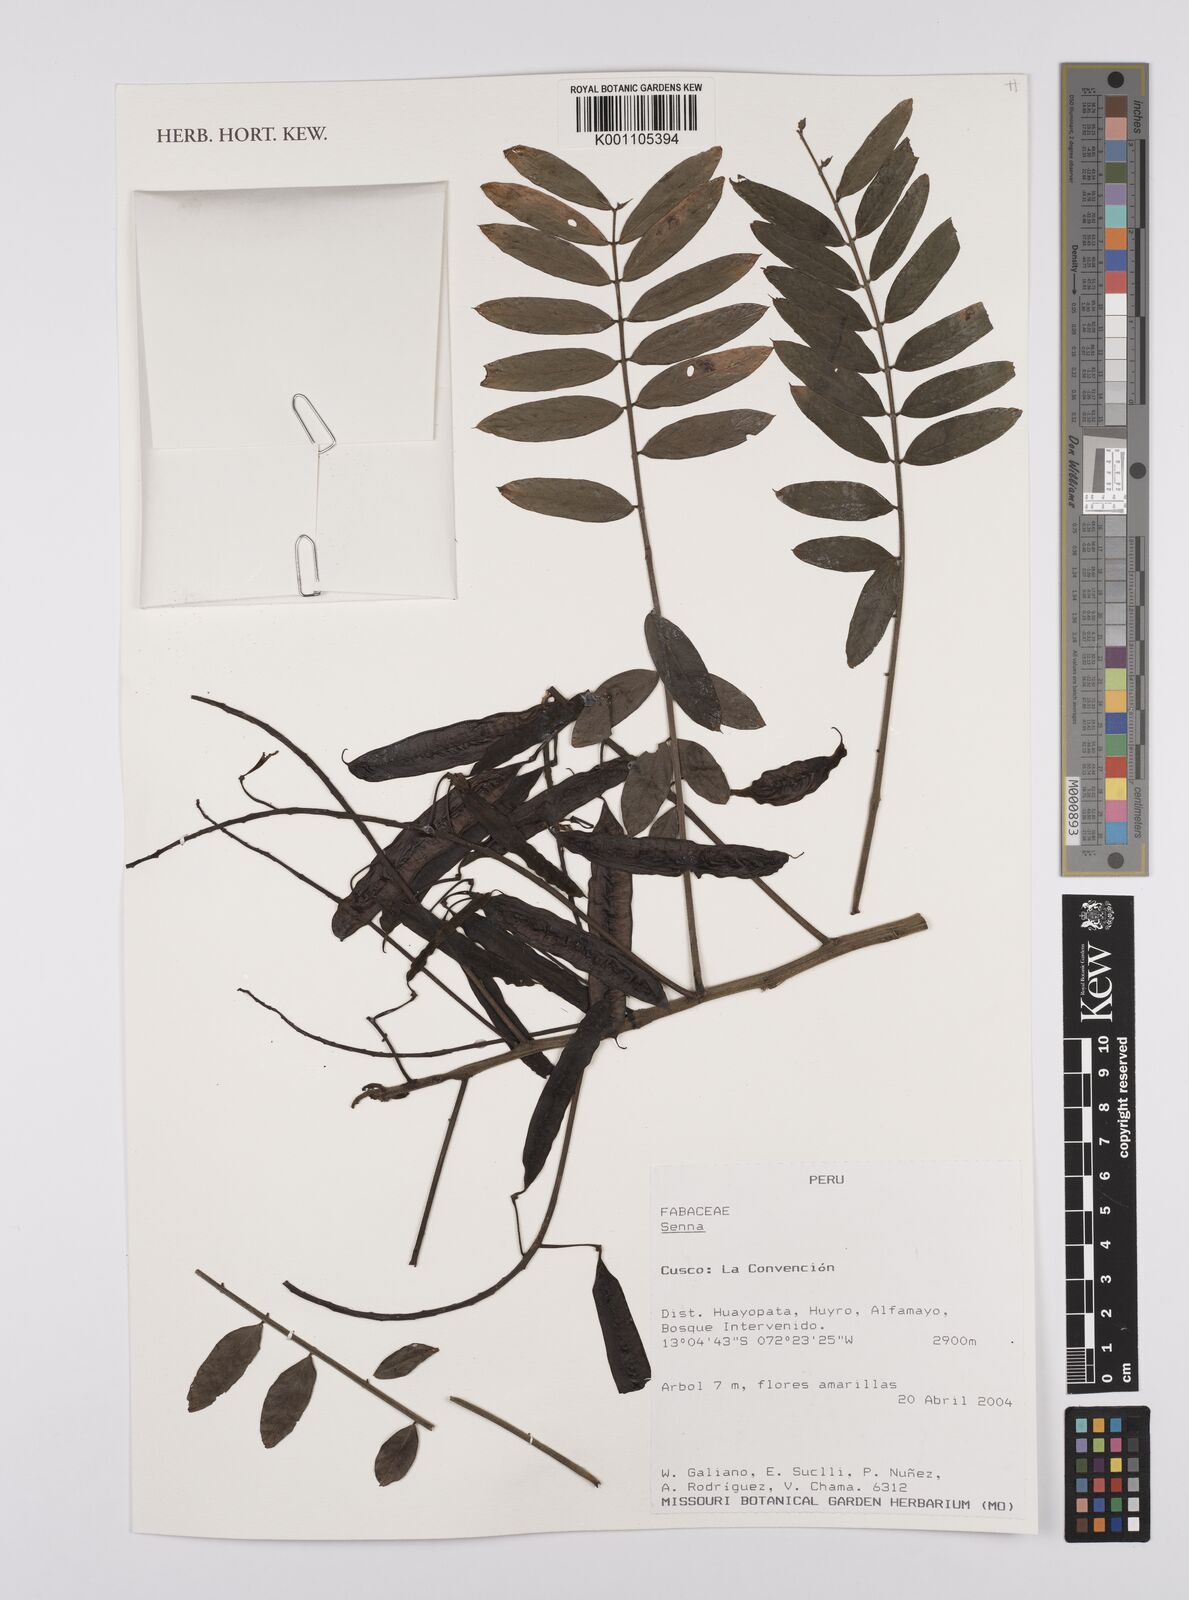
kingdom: Plantae
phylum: Tracheophyta
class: Magnoliopsida
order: Fabales
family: Fabaceae
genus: Senna
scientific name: Senna
